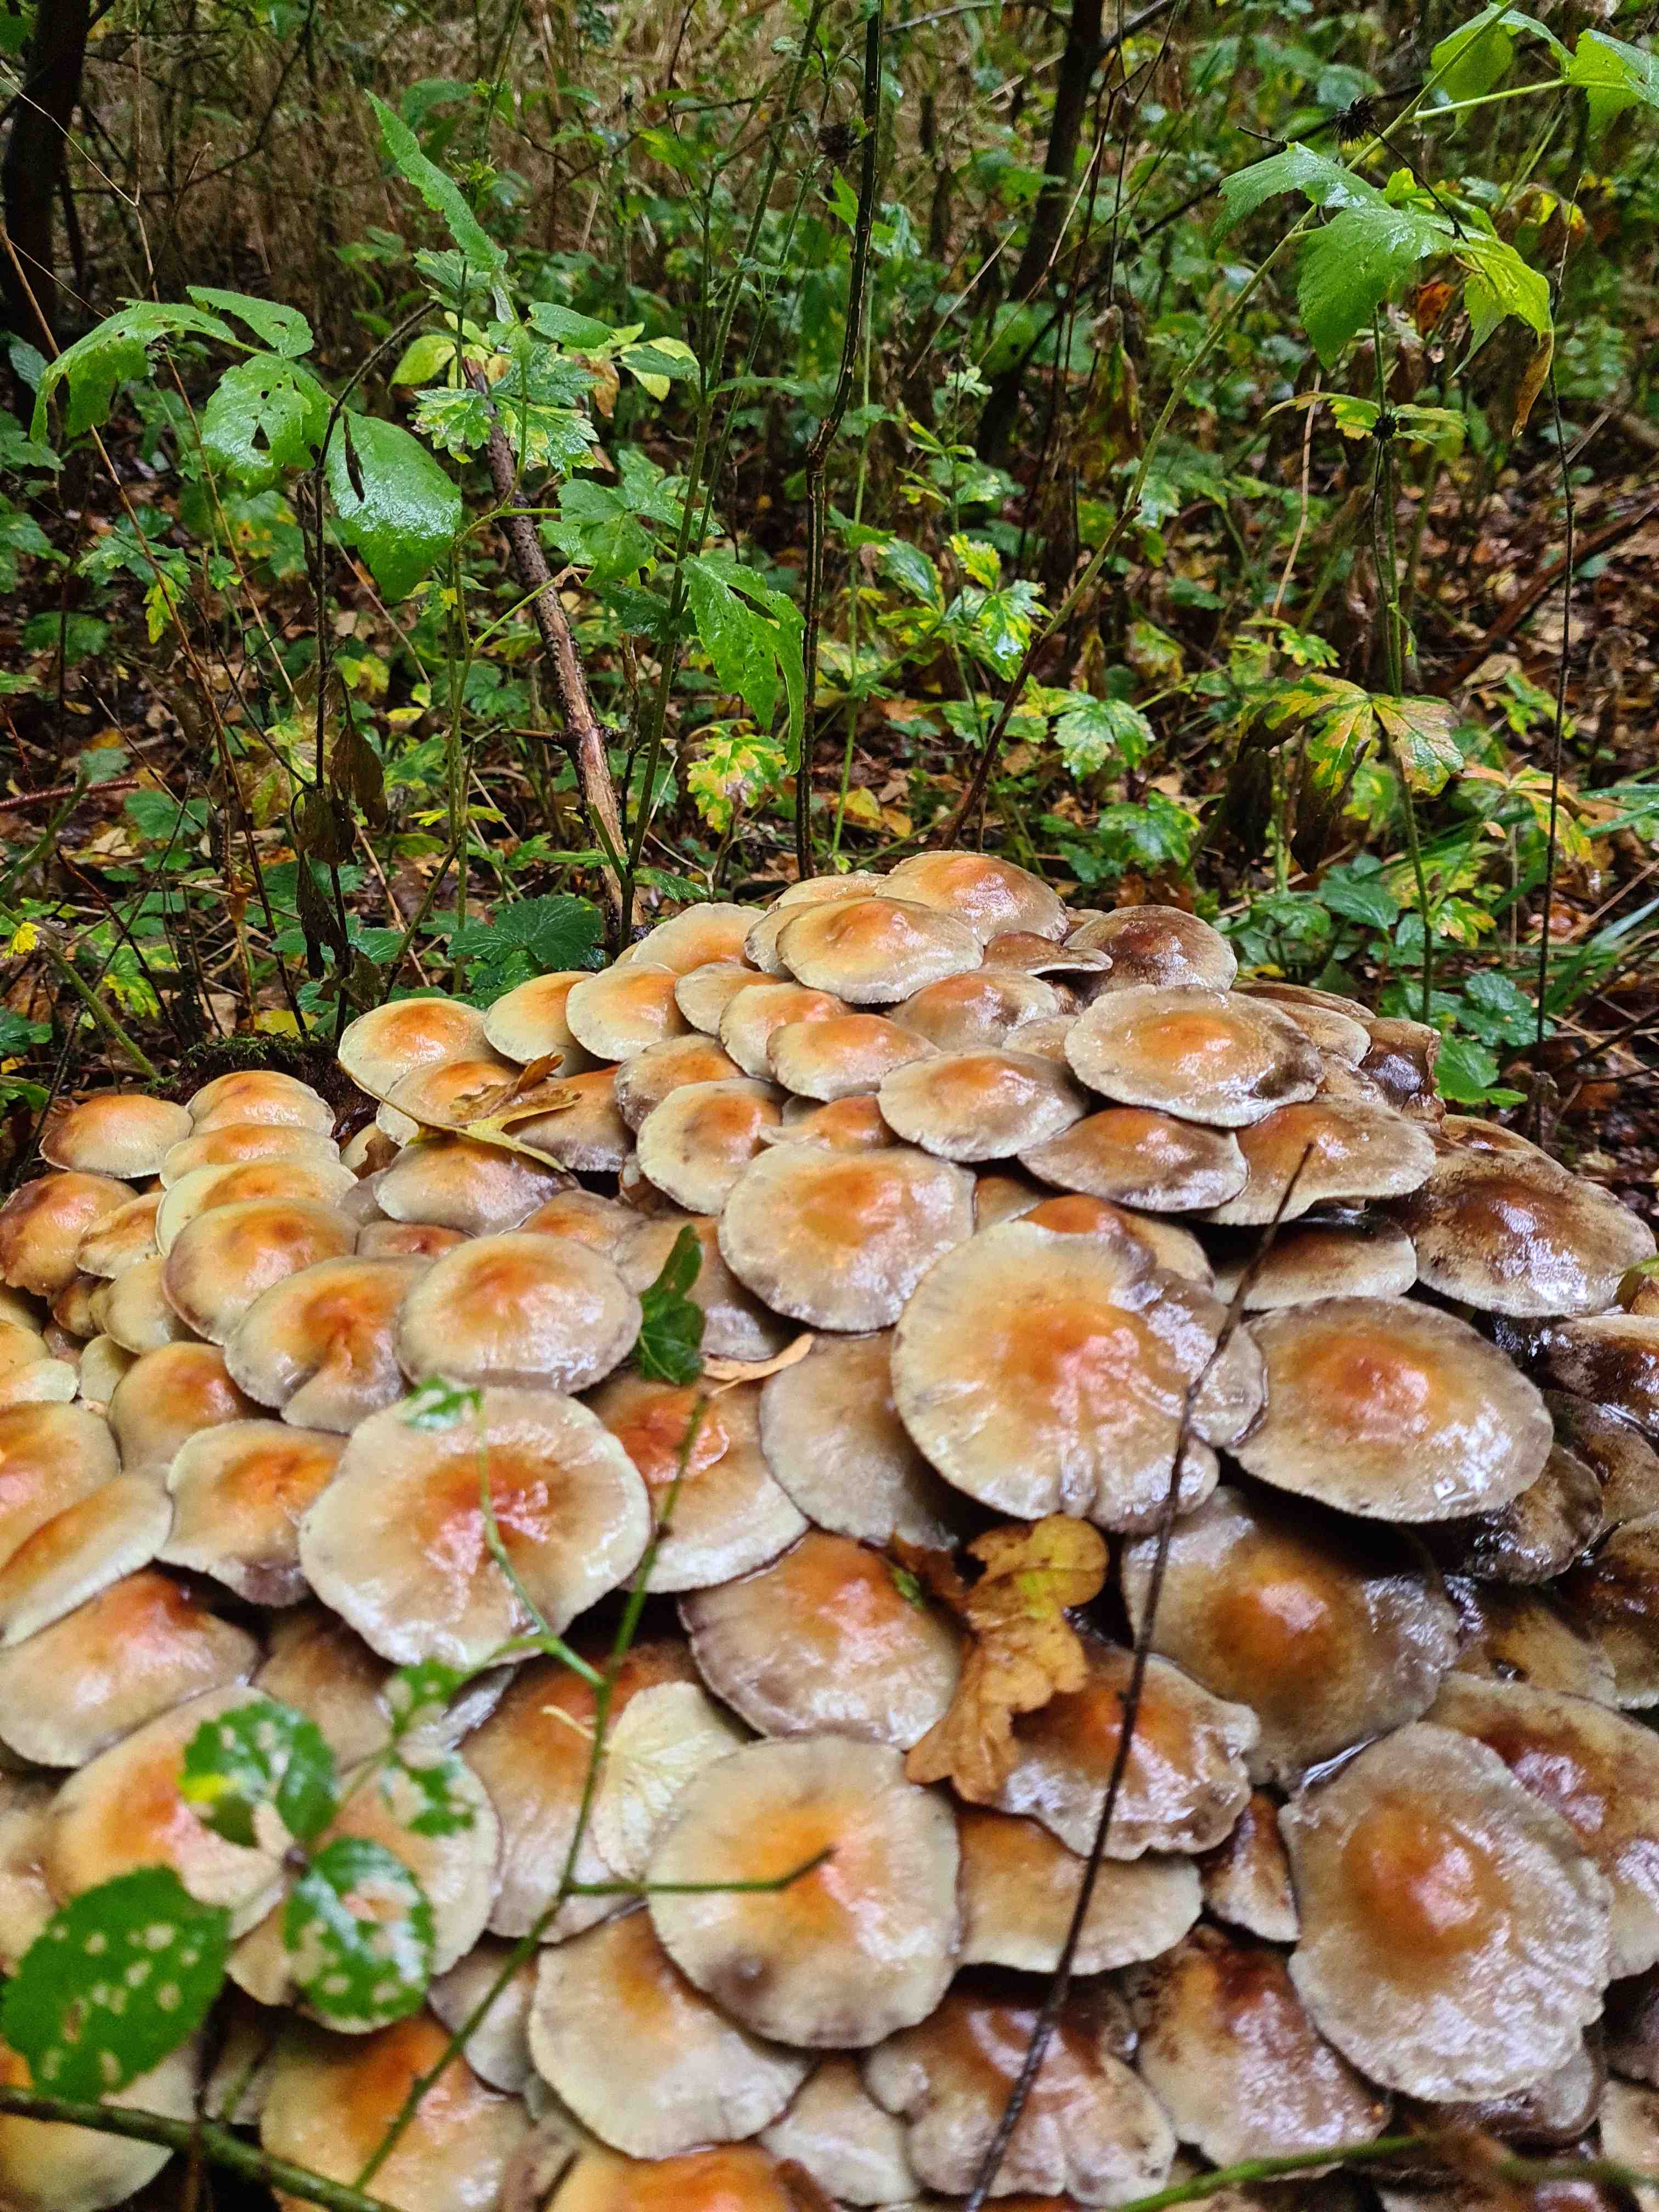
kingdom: Fungi
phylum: Basidiomycota
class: Agaricomycetes
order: Agaricales
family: Strophariaceae
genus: Hypholoma
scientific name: Hypholoma
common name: svovlhat
